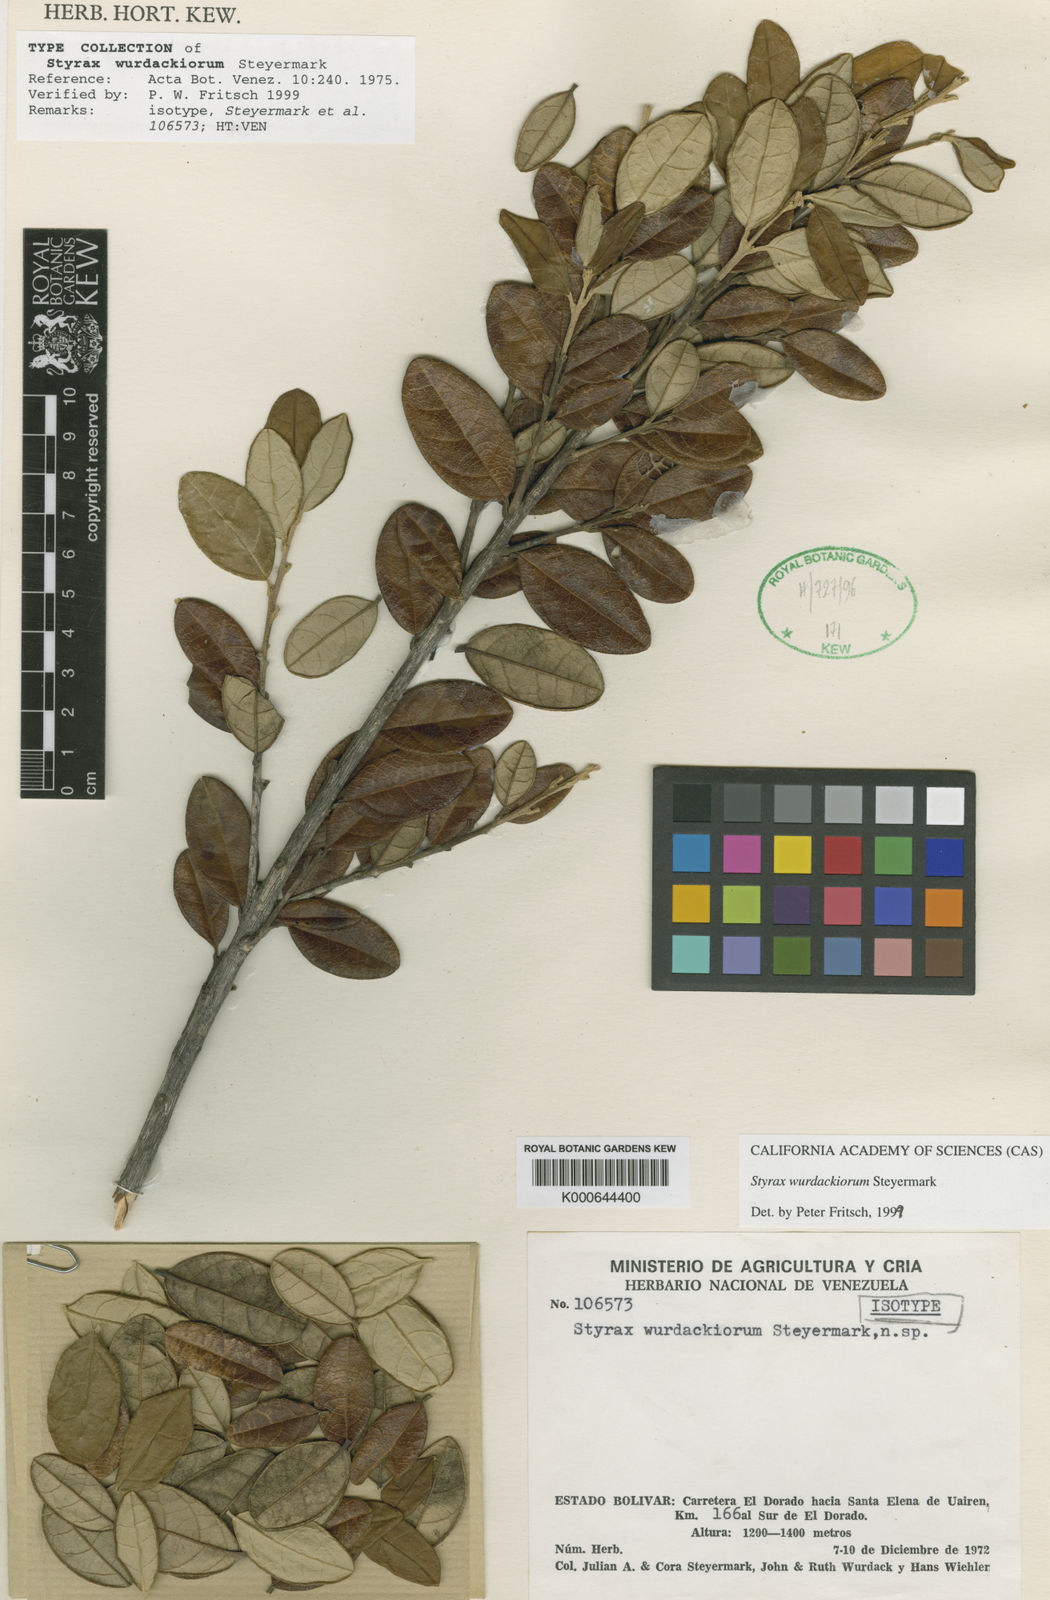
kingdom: Plantae
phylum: Tracheophyta
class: Magnoliopsida
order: Ericales
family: Styracaceae
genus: Styrax
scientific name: Styrax wurdackiorum
